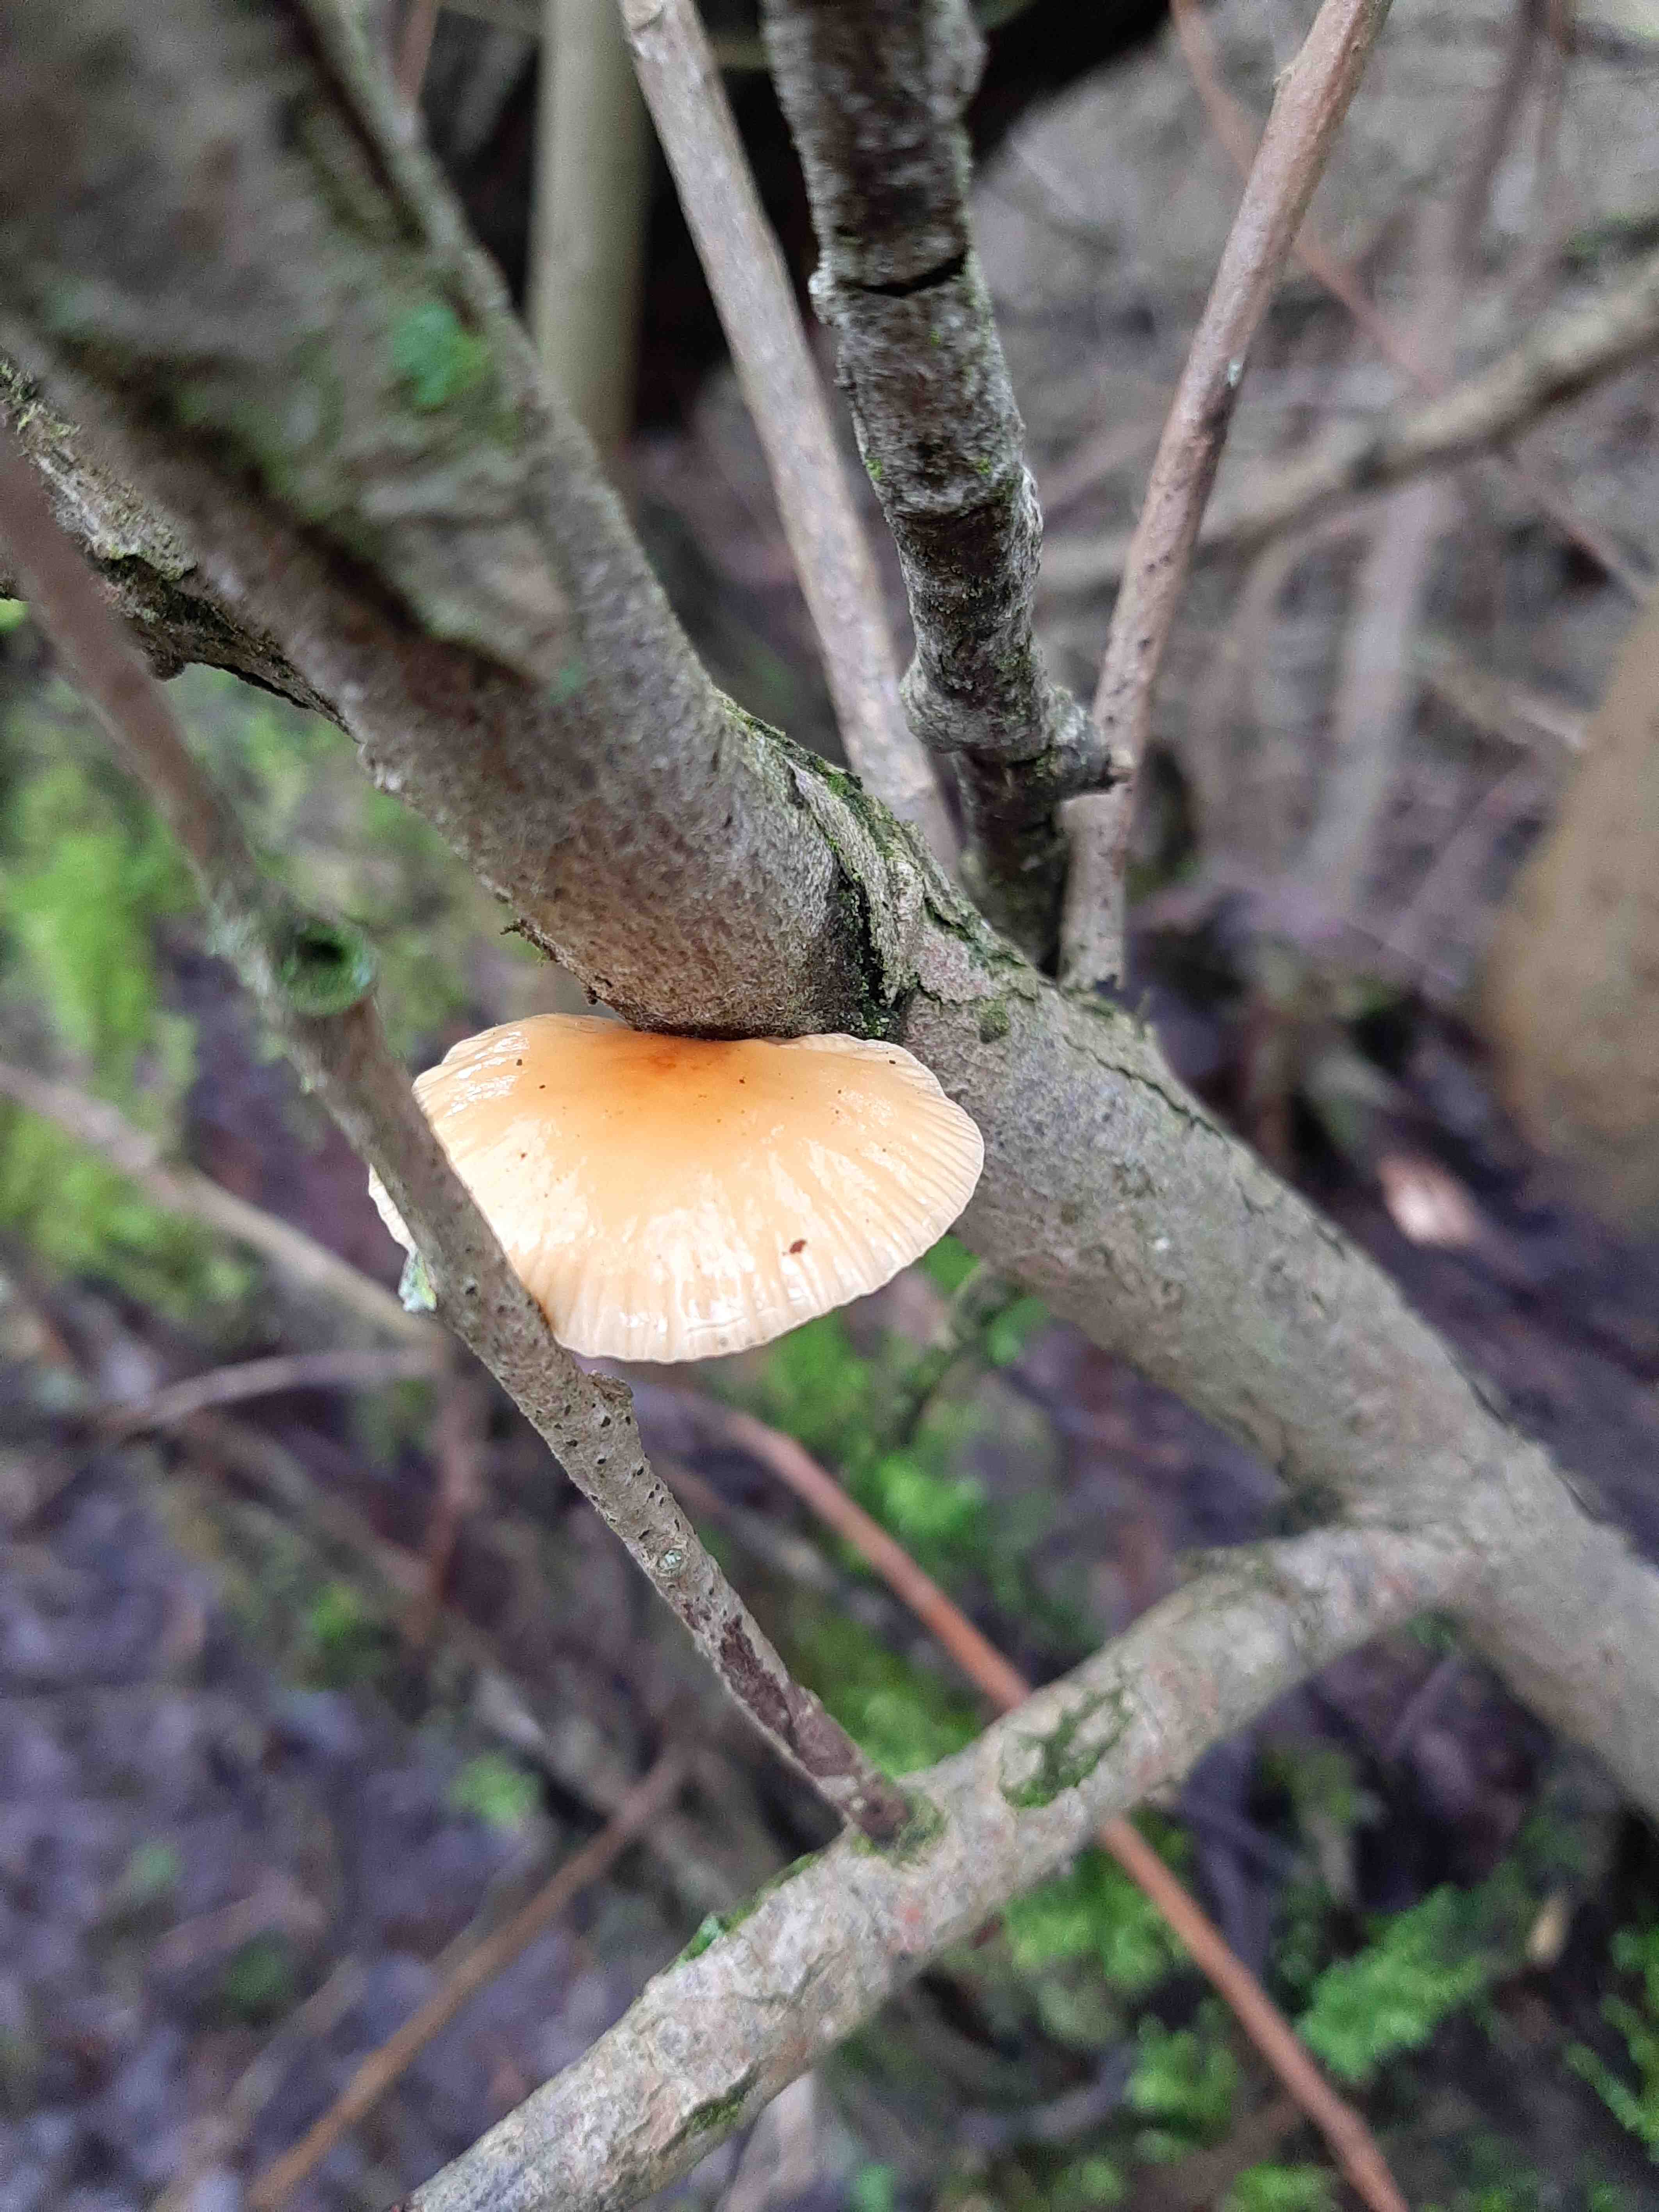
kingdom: Fungi
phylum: Basidiomycota
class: Agaricomycetes
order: Agaricales
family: Physalacriaceae
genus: Flammulina
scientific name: Flammulina
